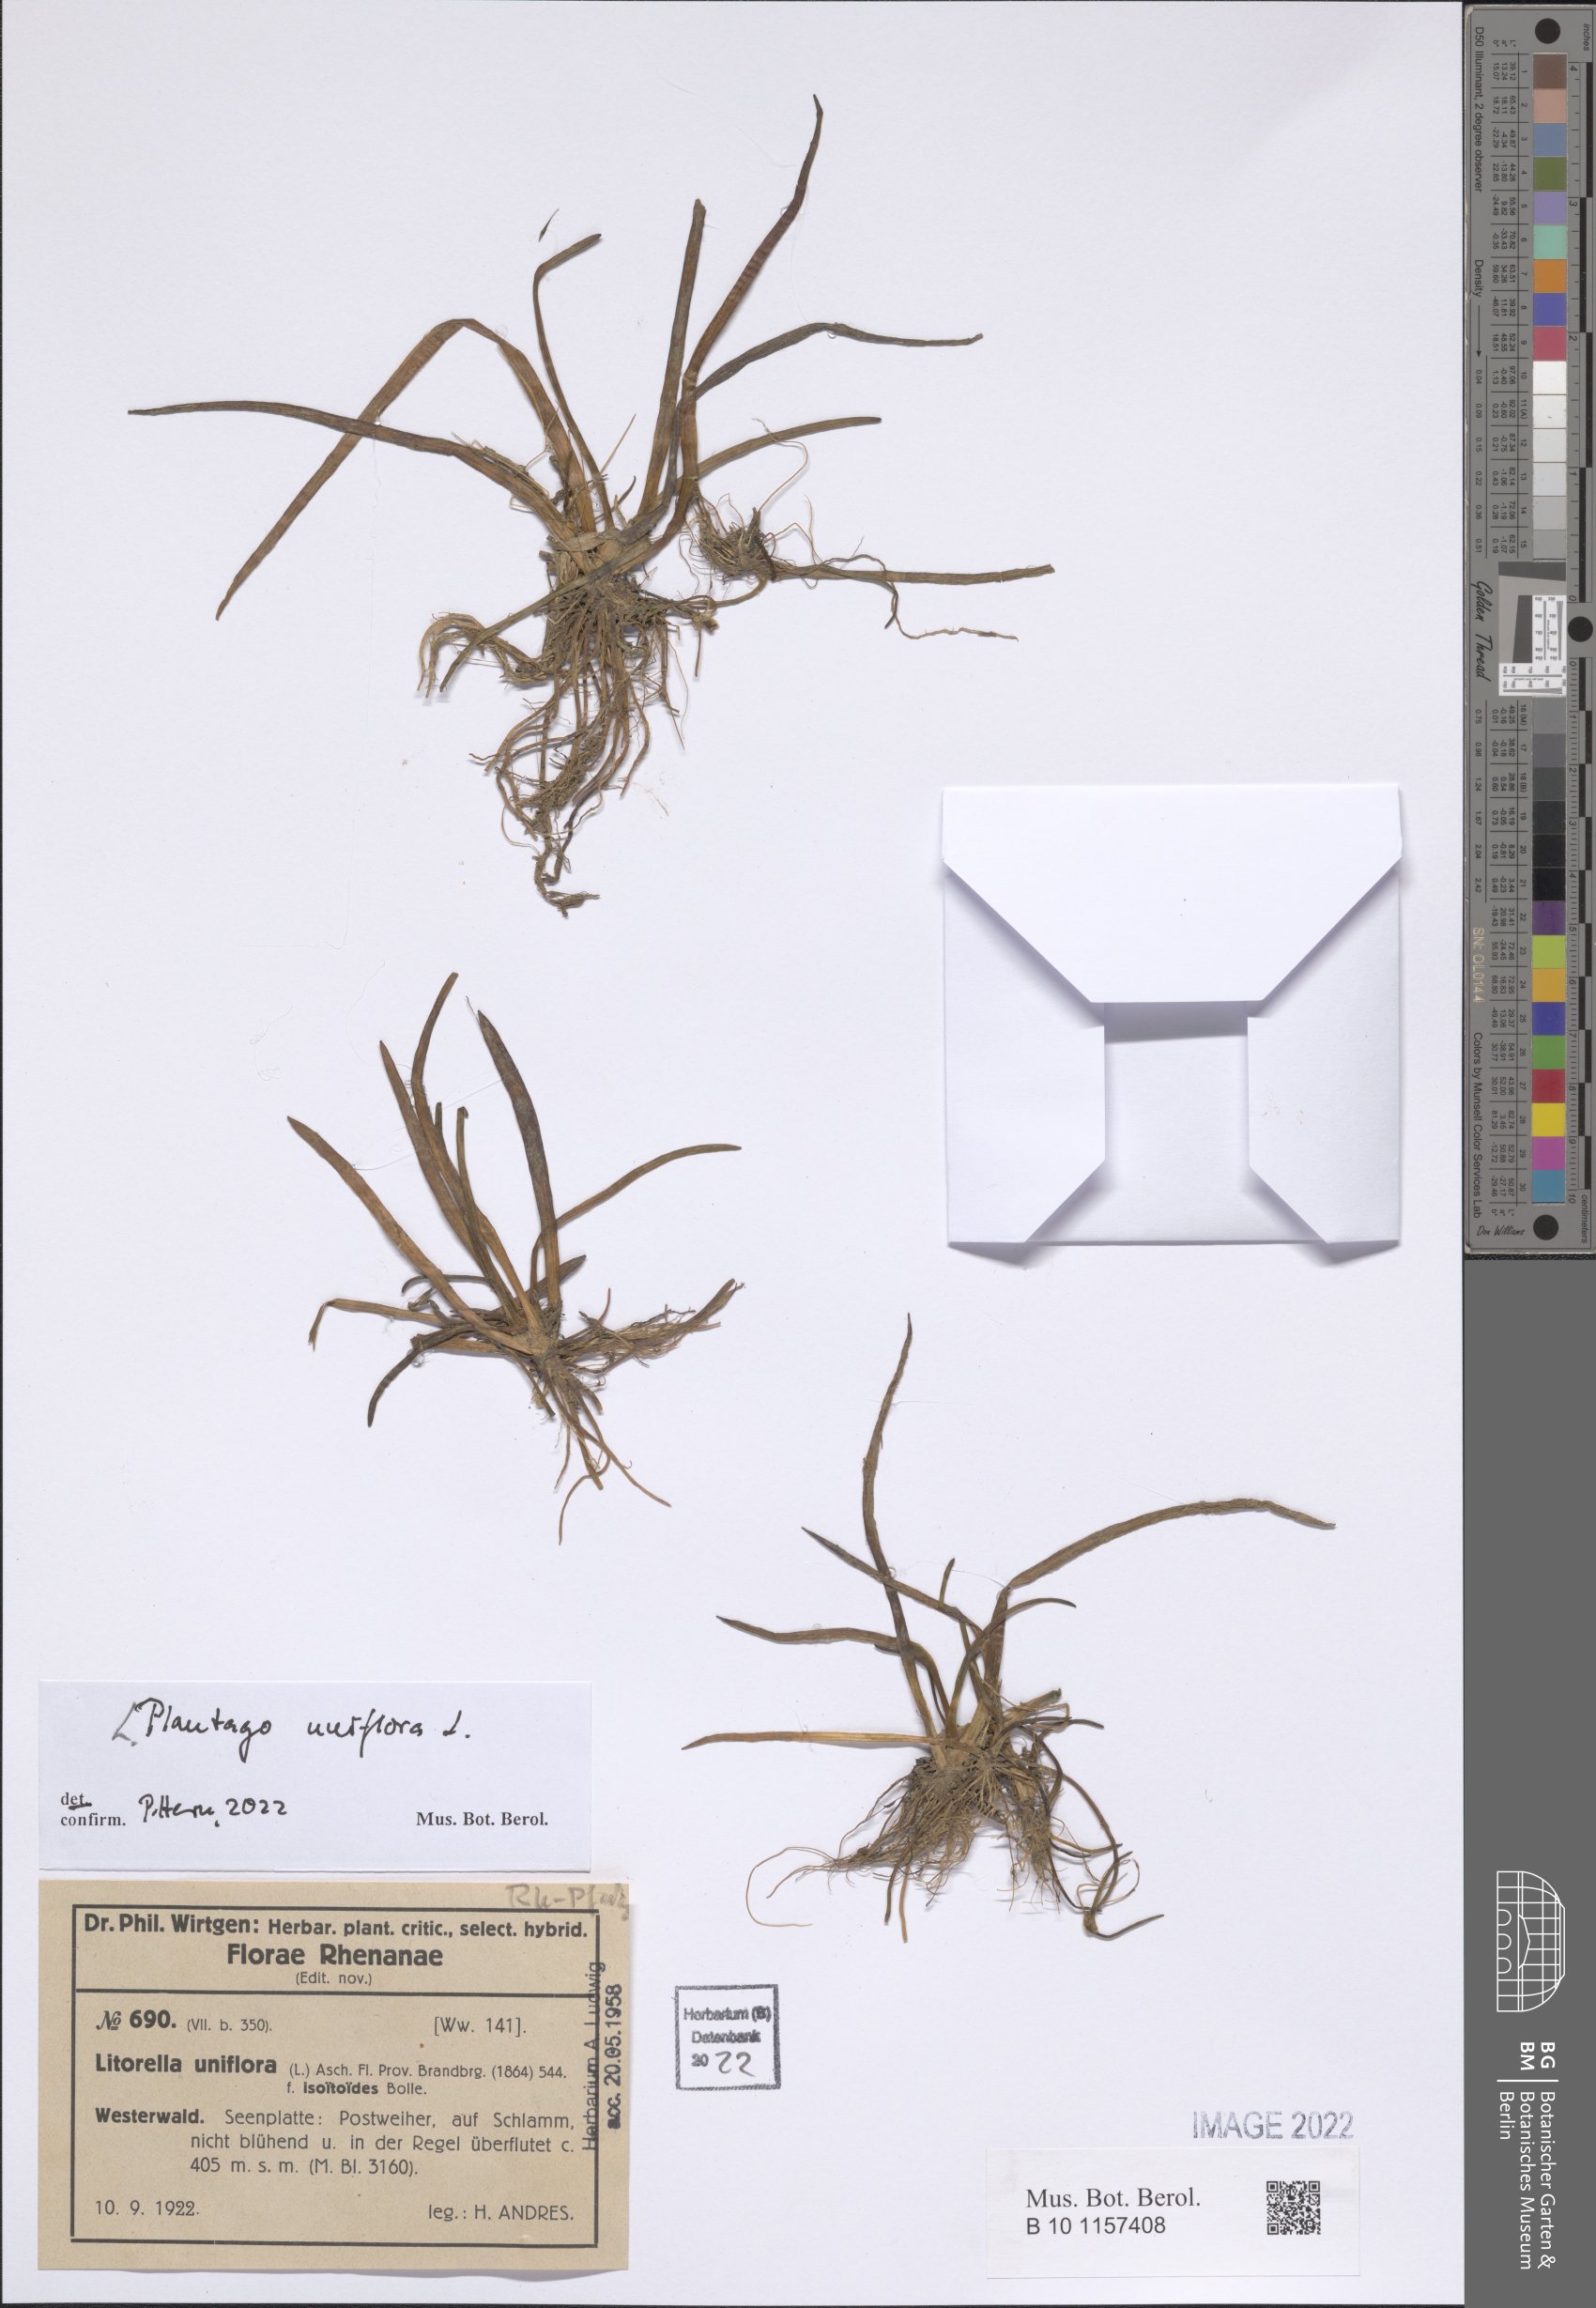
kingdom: Plantae
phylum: Tracheophyta
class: Magnoliopsida
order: Lamiales
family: Plantaginaceae
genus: Littorella
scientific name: Littorella uniflora
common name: Shoreweed
